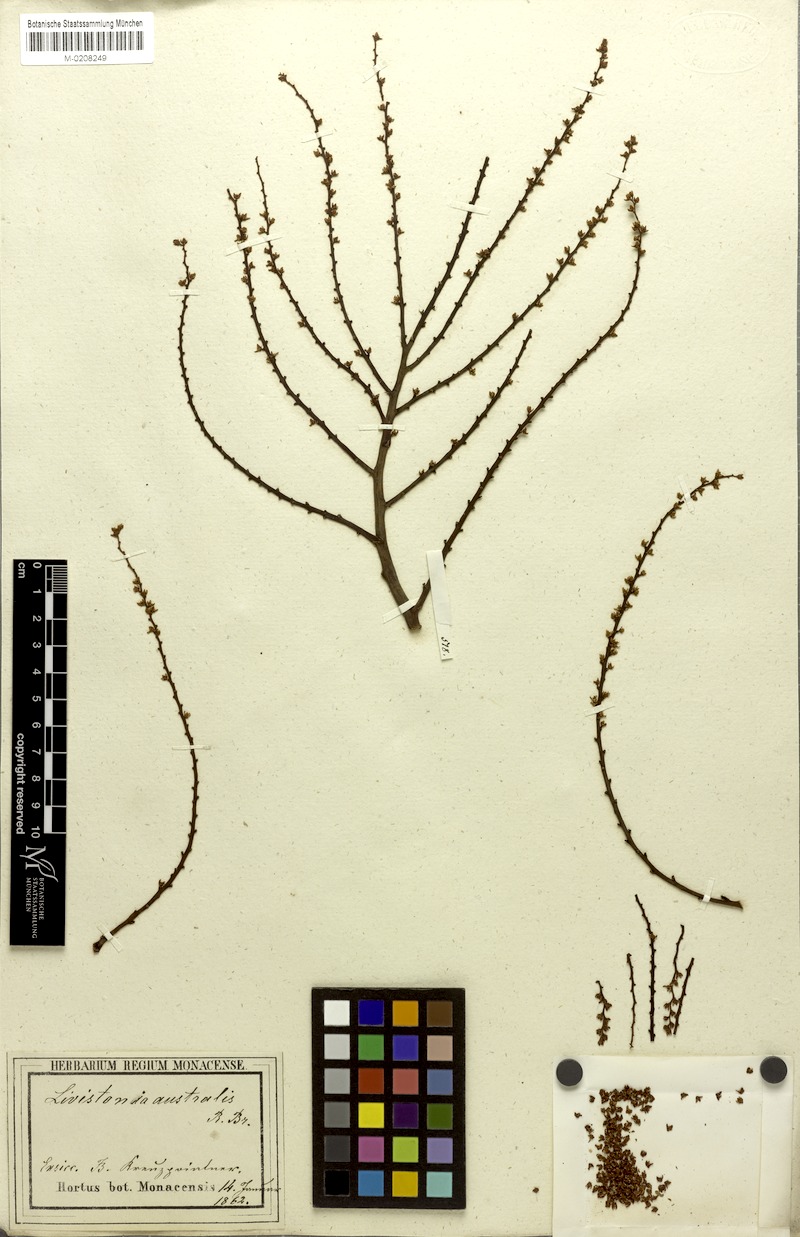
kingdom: Plantae
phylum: Tracheophyta
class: Liliopsida
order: Arecales
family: Arecaceae
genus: Livistona
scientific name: Livistona australis
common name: Cabbage fan palm
